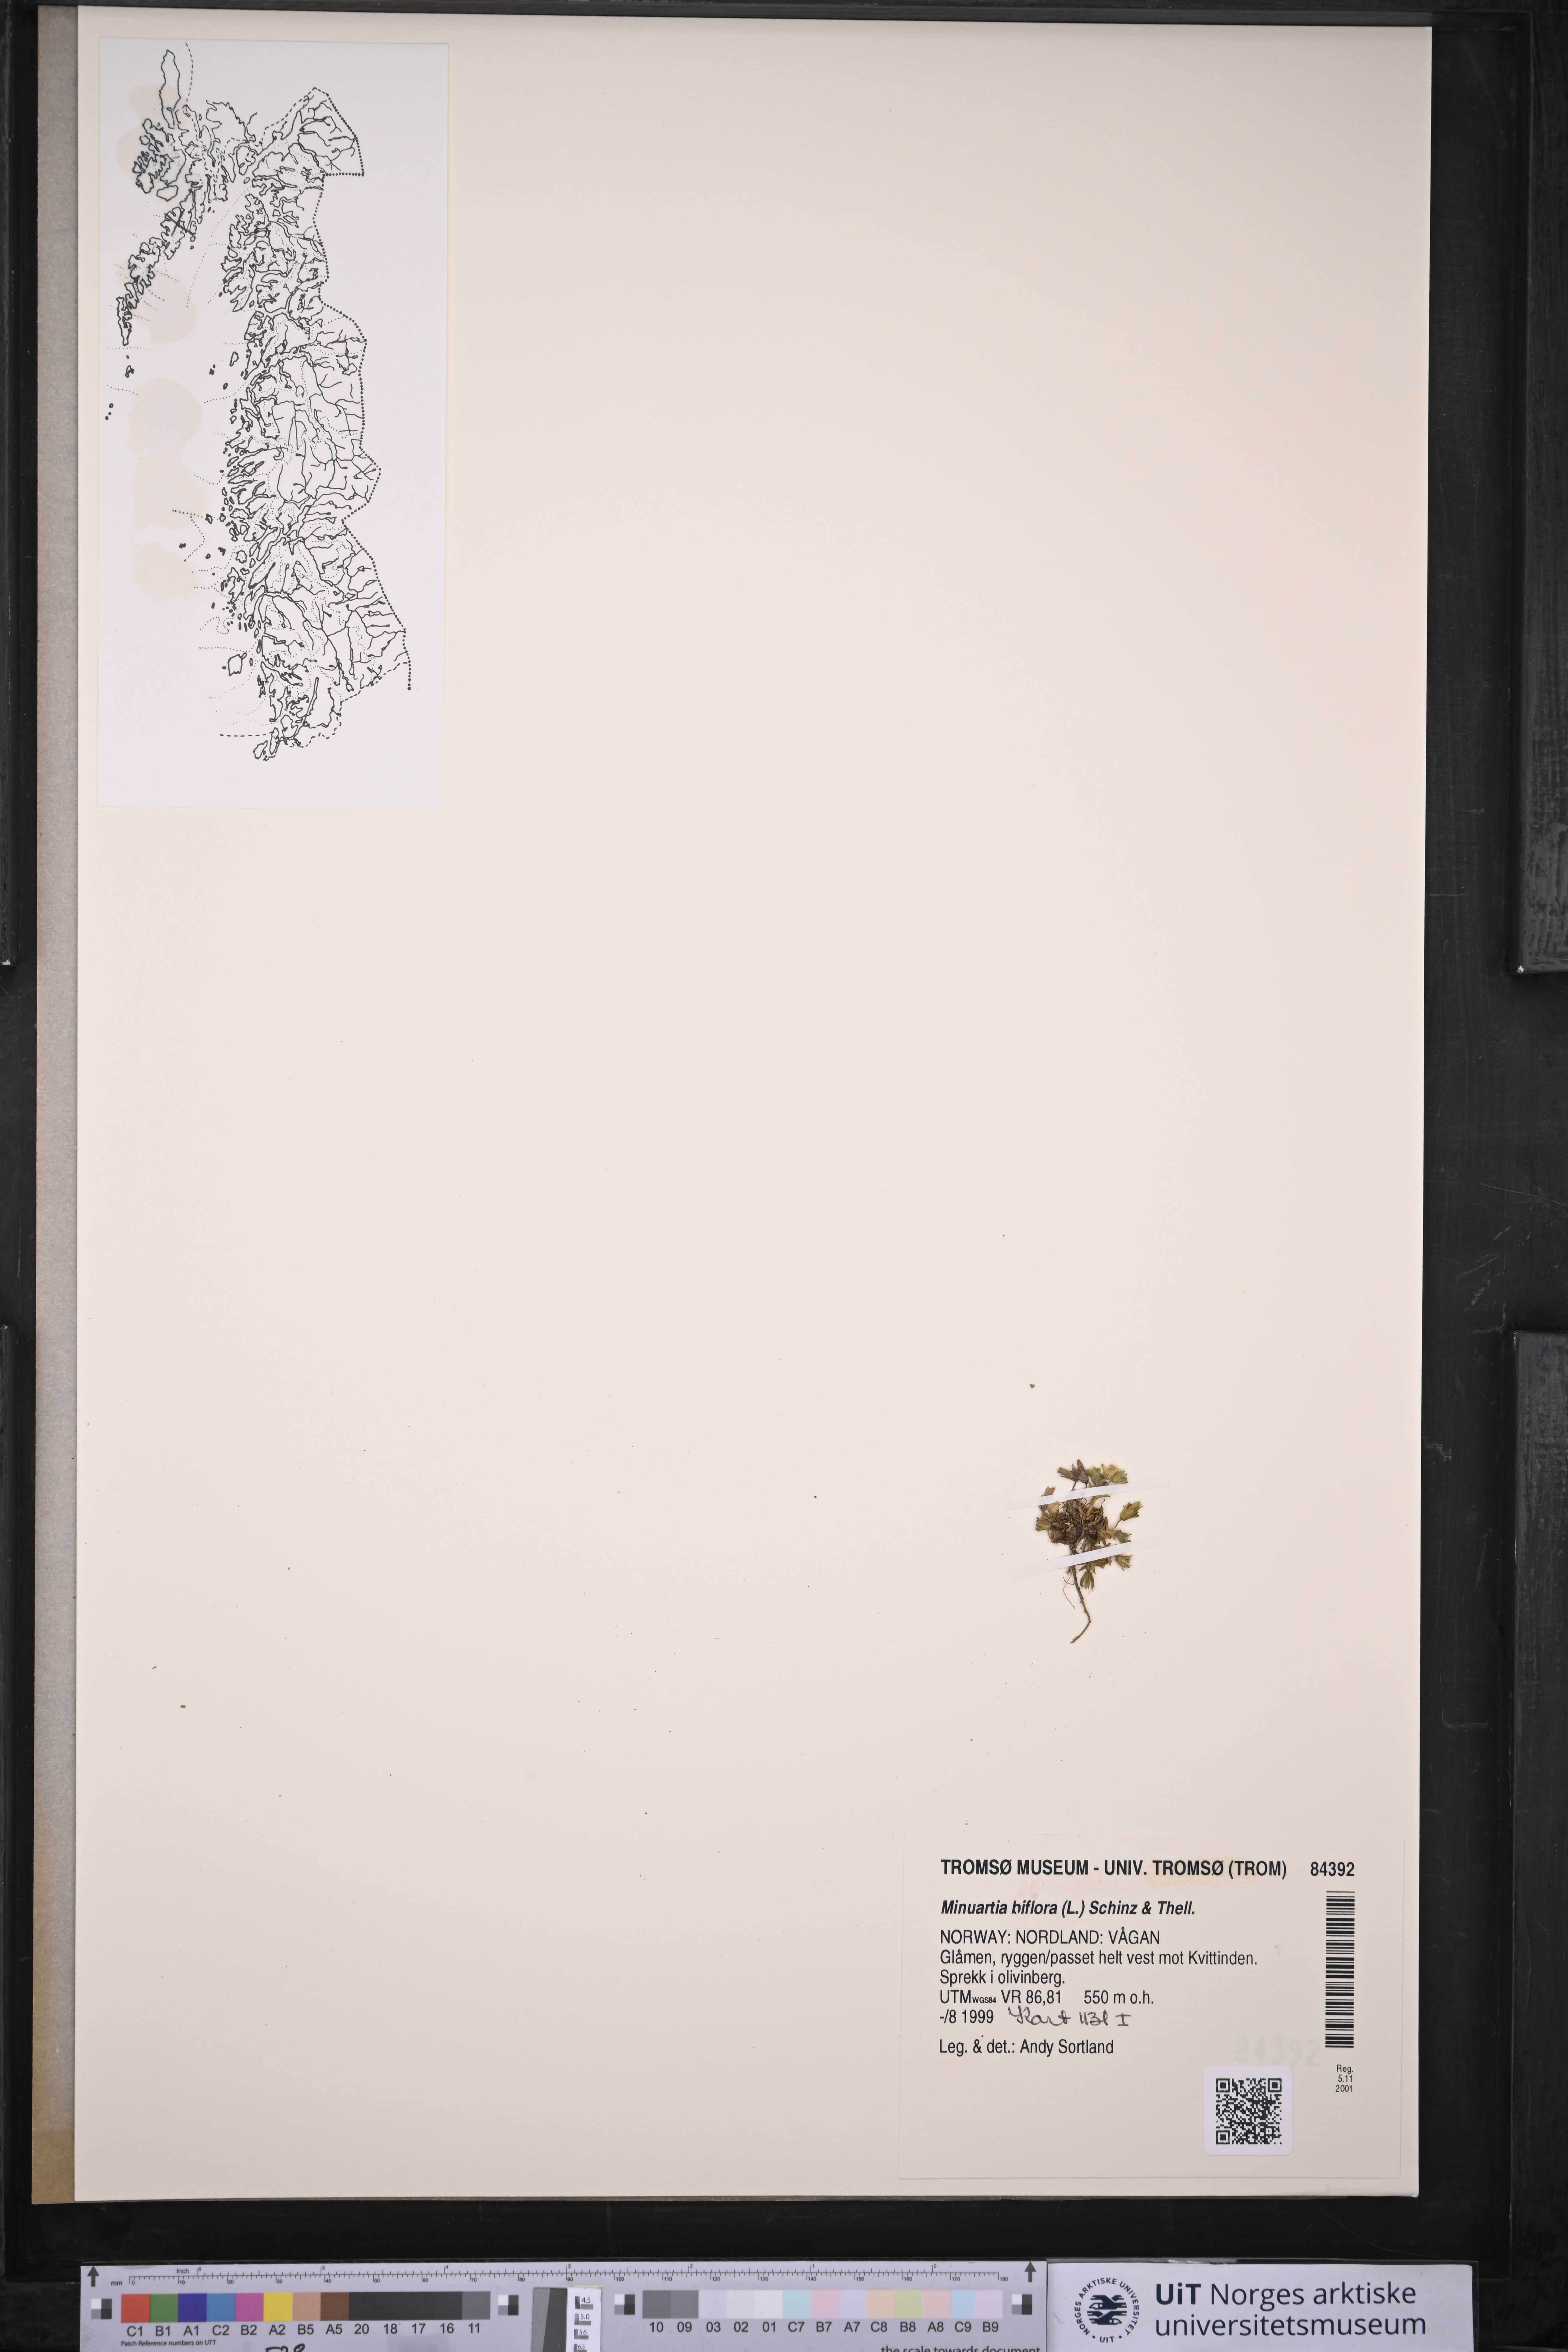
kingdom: Plantae
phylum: Tracheophyta
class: Magnoliopsida
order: Caryophyllales
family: Caryophyllaceae
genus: Cherleria
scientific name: Cherleria biflora
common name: Mountain sandwort
